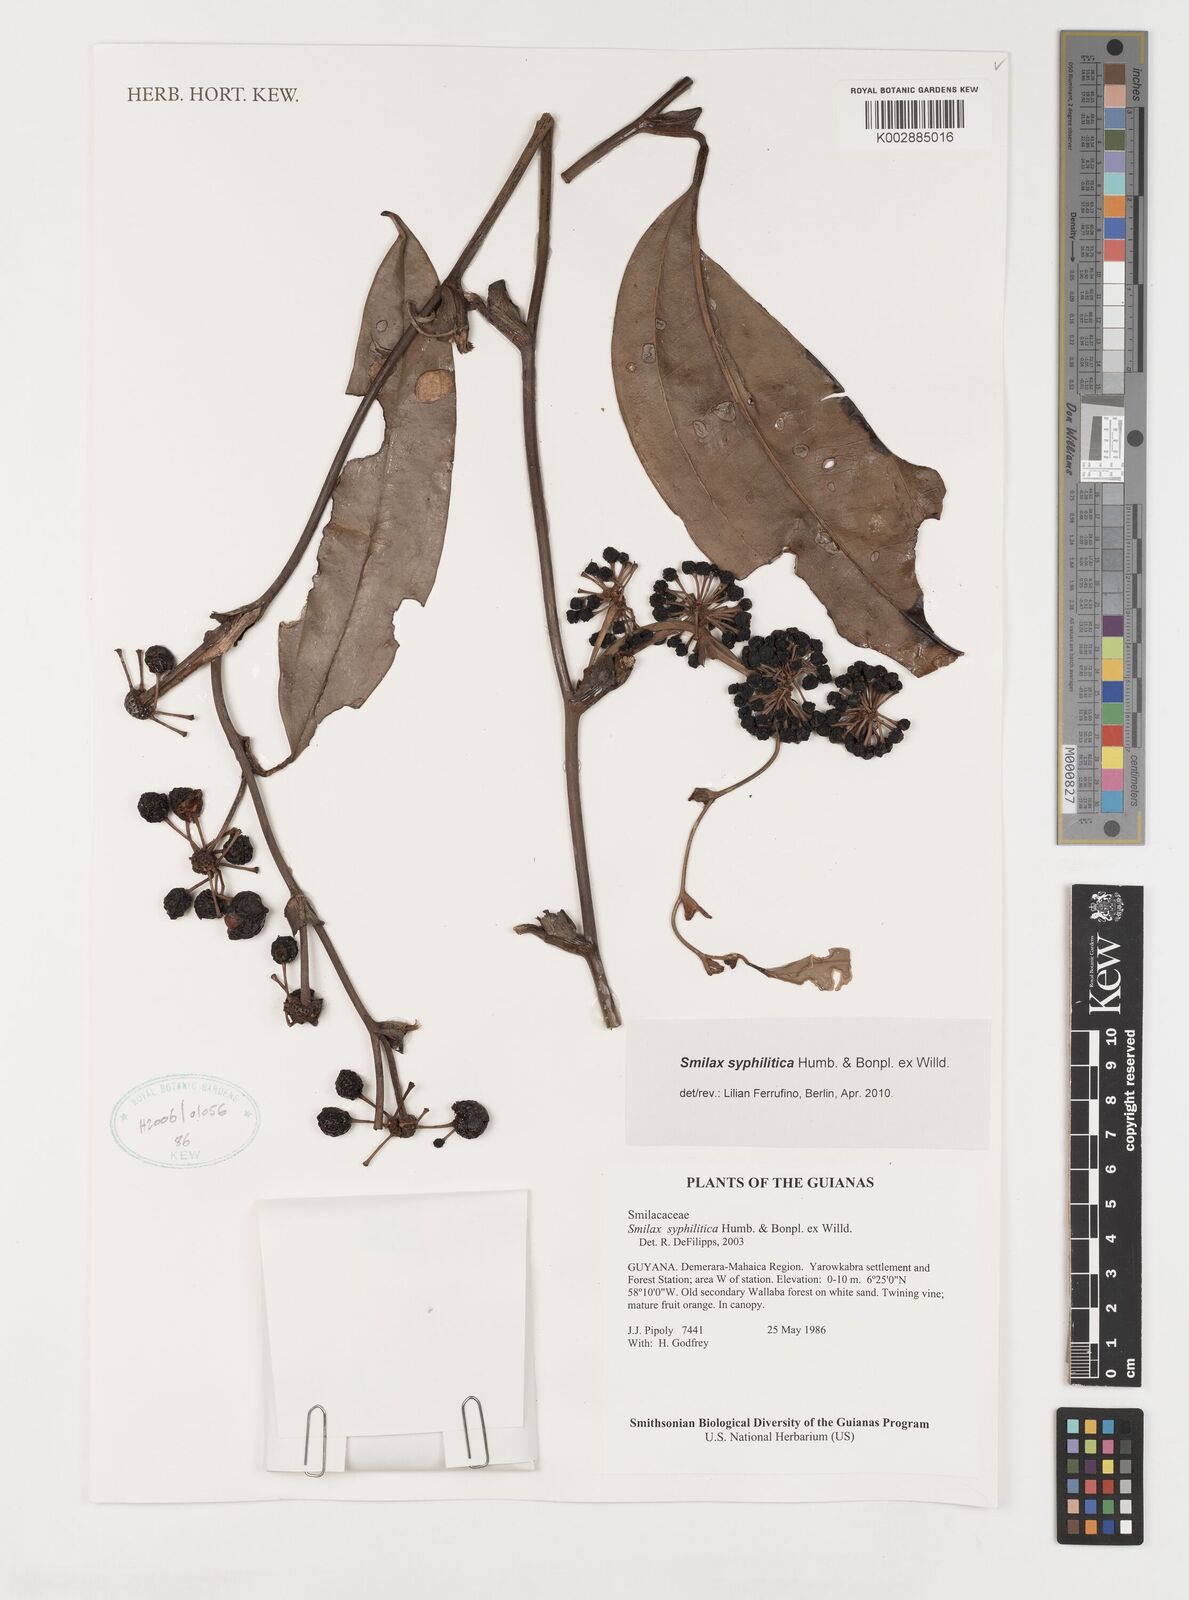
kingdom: Plantae
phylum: Tracheophyta
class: Liliopsida
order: Liliales
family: Smilacaceae
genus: Smilax
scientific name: Smilax schomburgkiana
